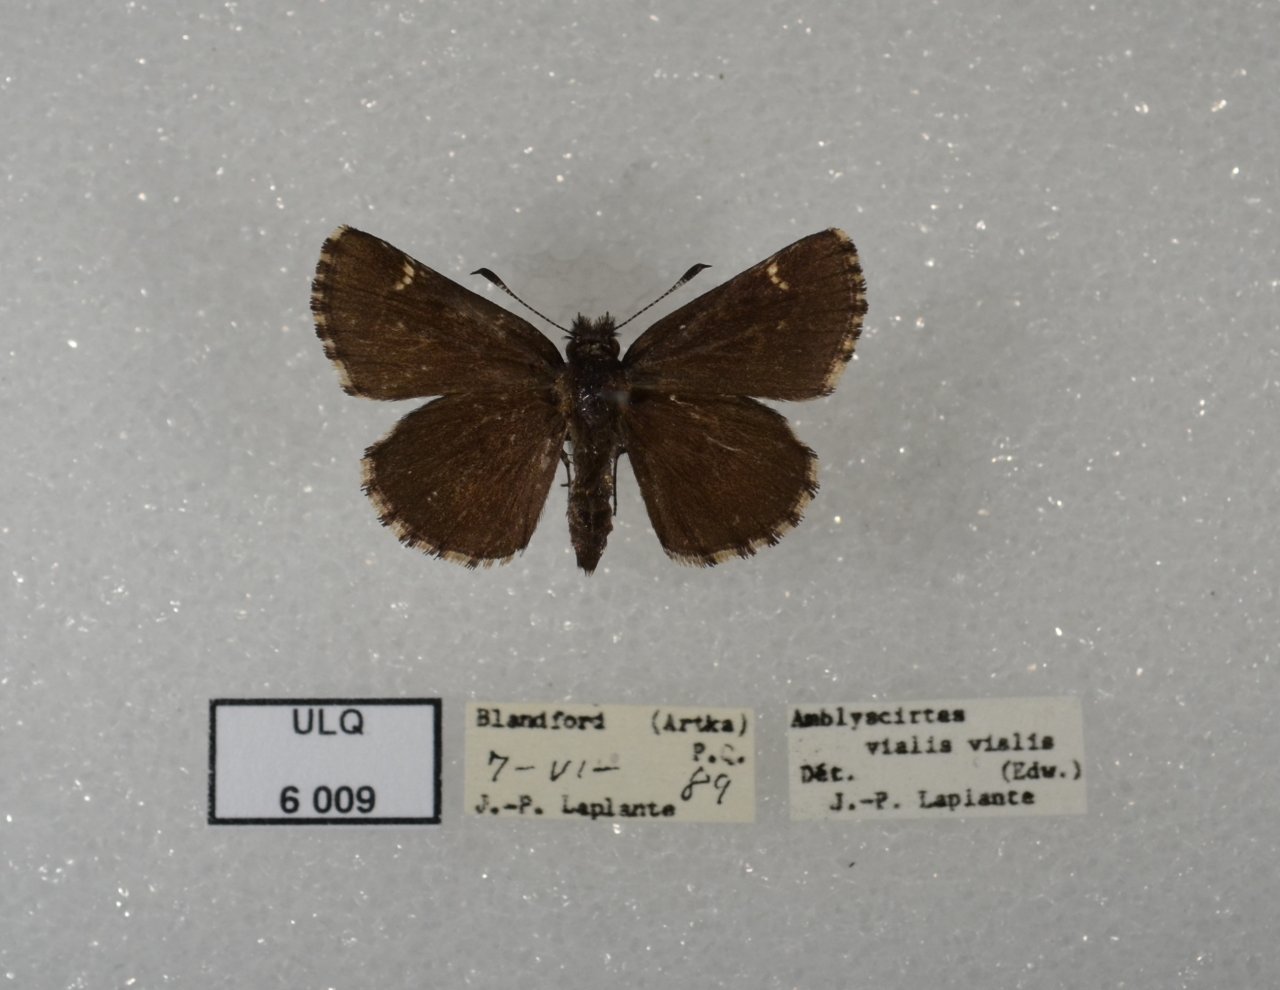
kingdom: Animalia
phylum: Arthropoda
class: Insecta
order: Lepidoptera
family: Hesperiidae
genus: Mastor
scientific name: Mastor vialis
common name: Common Roadside-Skipper
